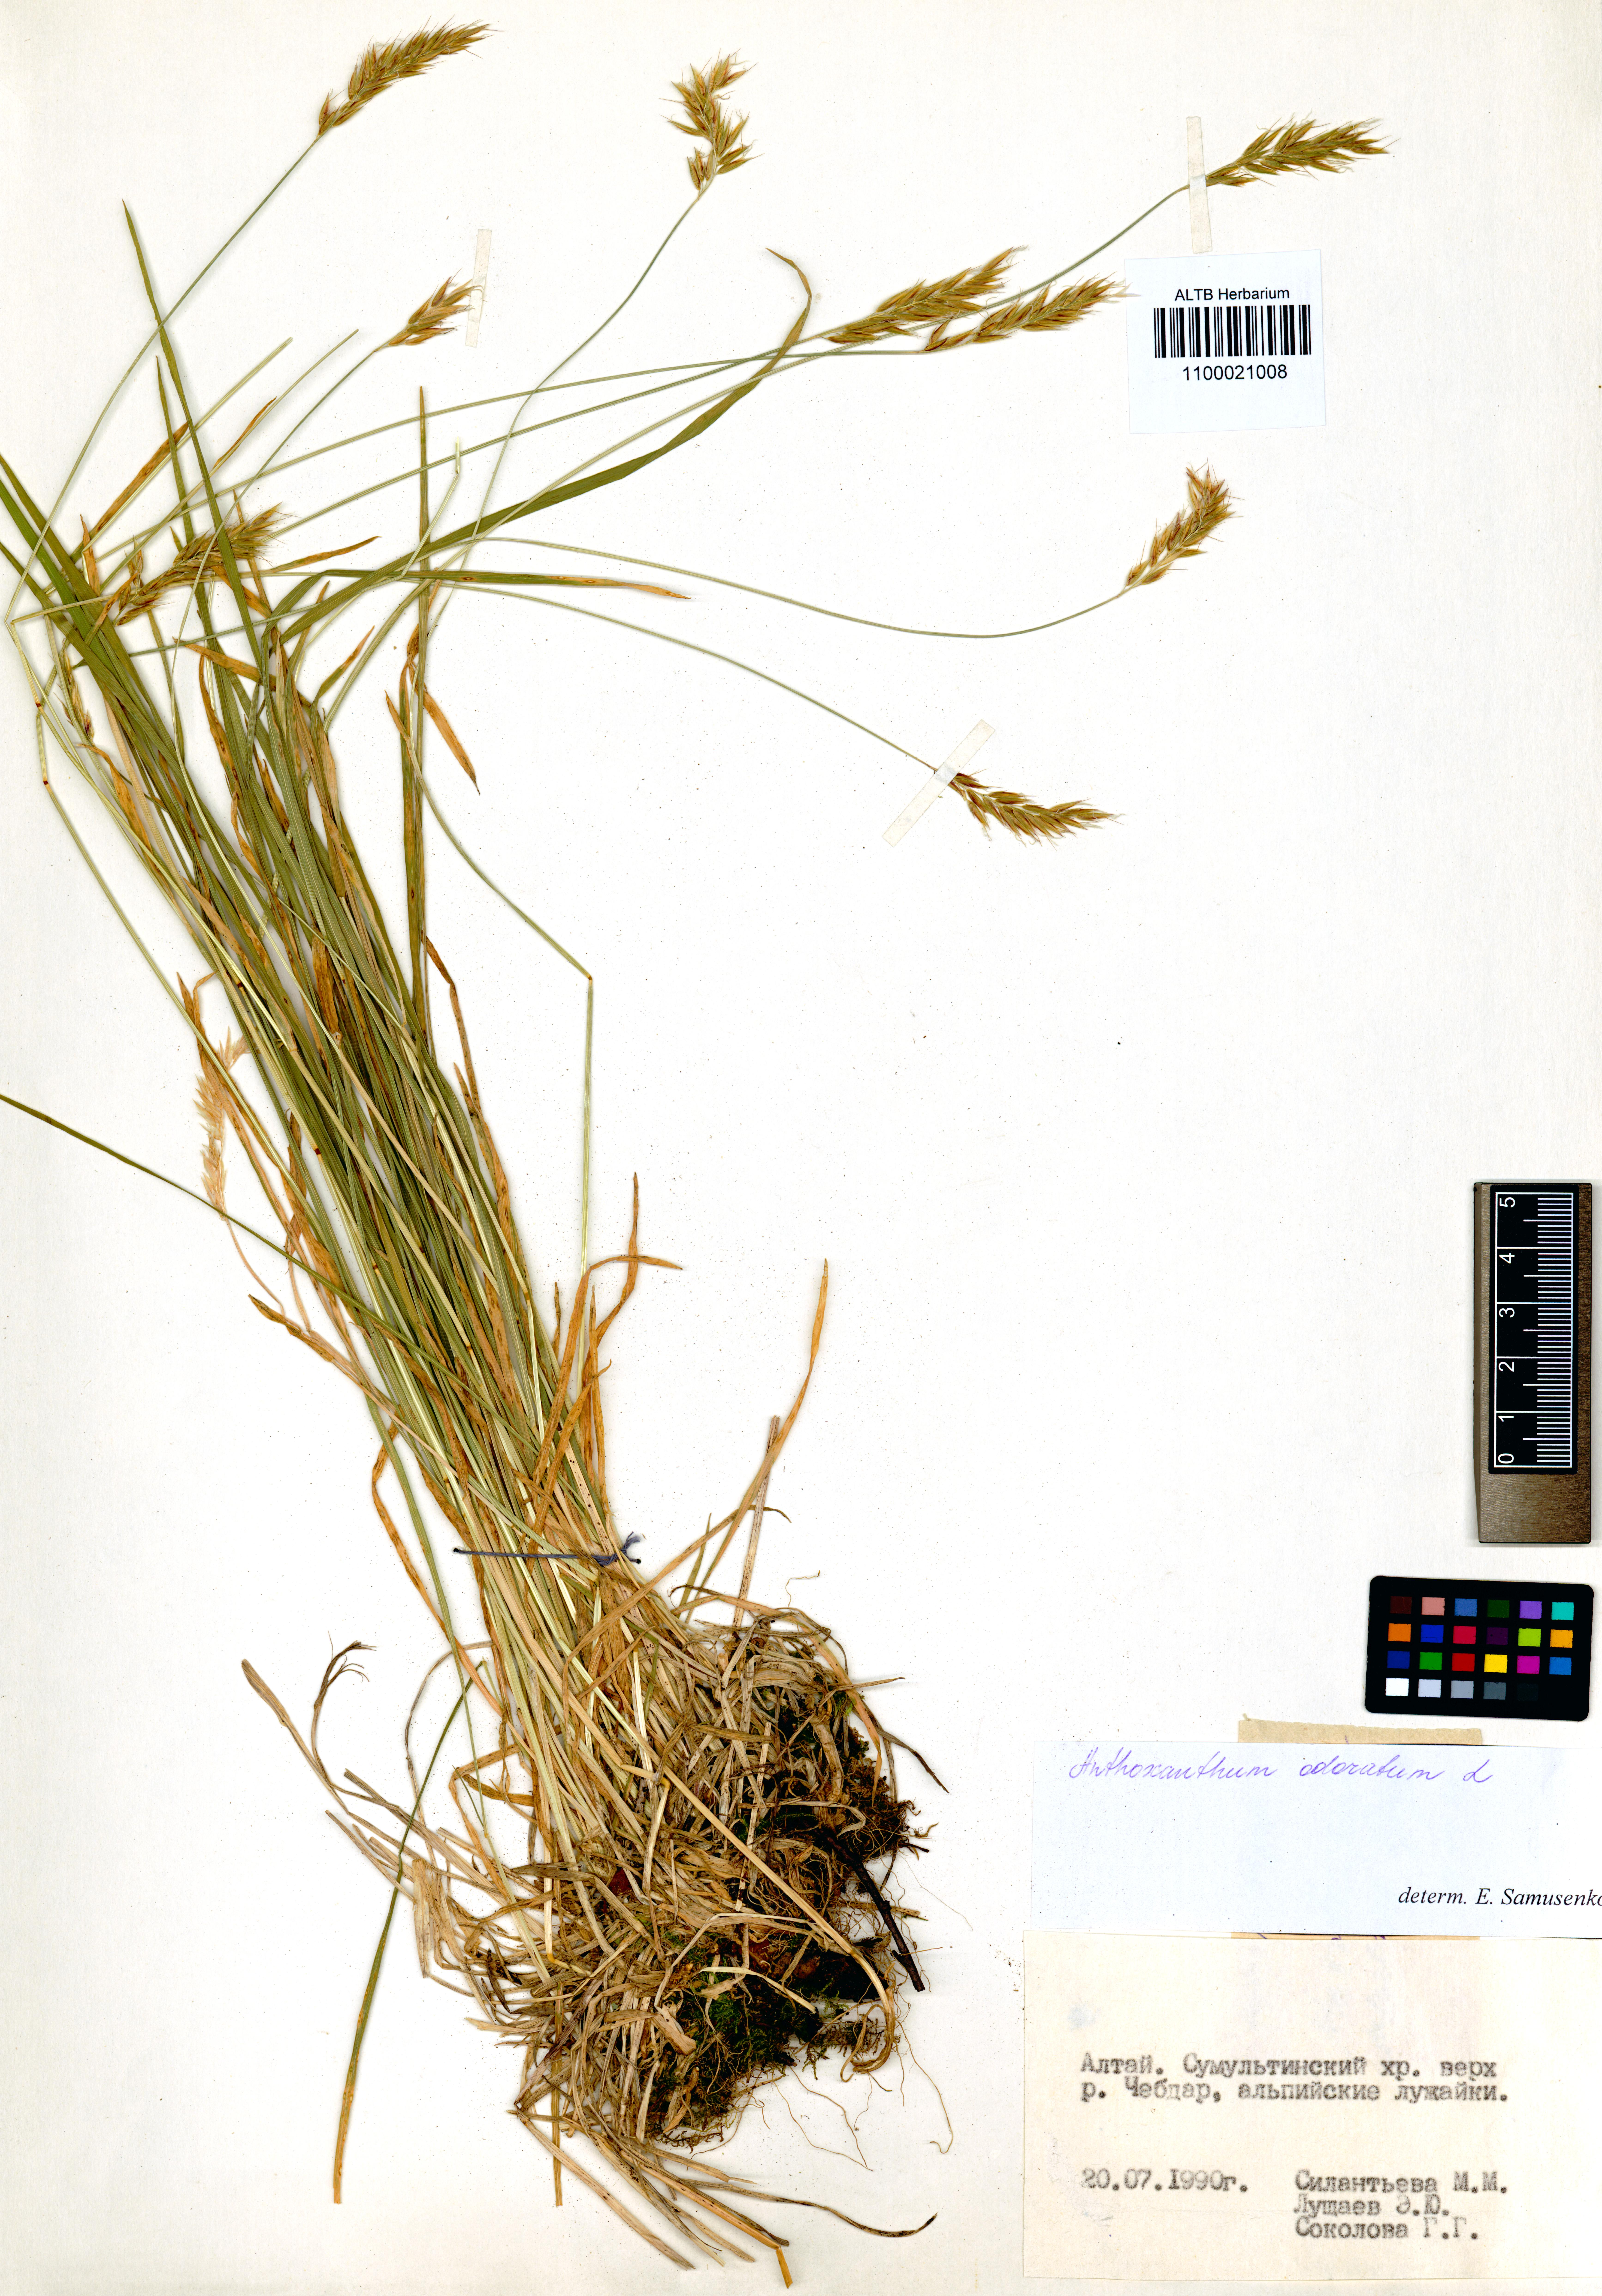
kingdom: Plantae
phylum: Tracheophyta
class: Liliopsida
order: Poales
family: Poaceae
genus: Anthoxanthum
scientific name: Anthoxanthum odoratum
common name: Sweet vernalgrass
